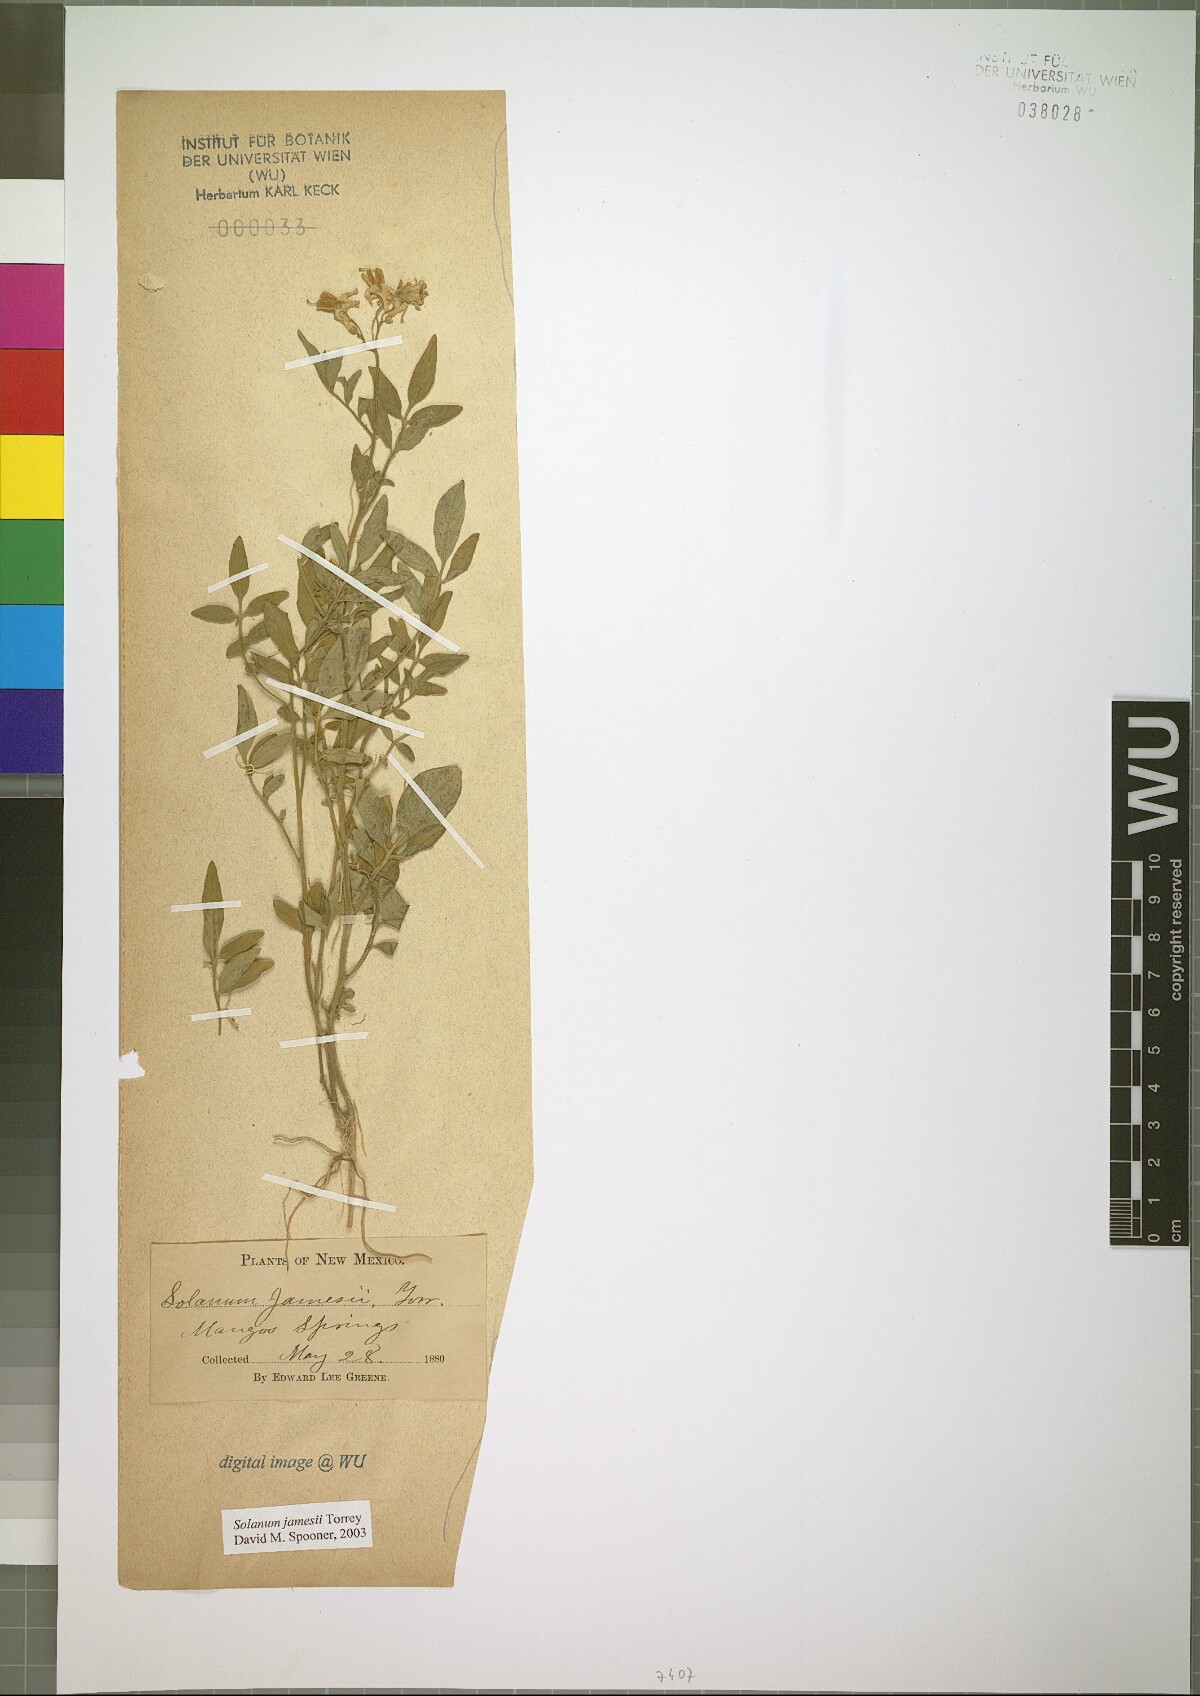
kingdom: Plantae
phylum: Tracheophyta
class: Magnoliopsida
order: Solanales
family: Solanaceae
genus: Solanum
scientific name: Solanum jamesii
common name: Wild potato
